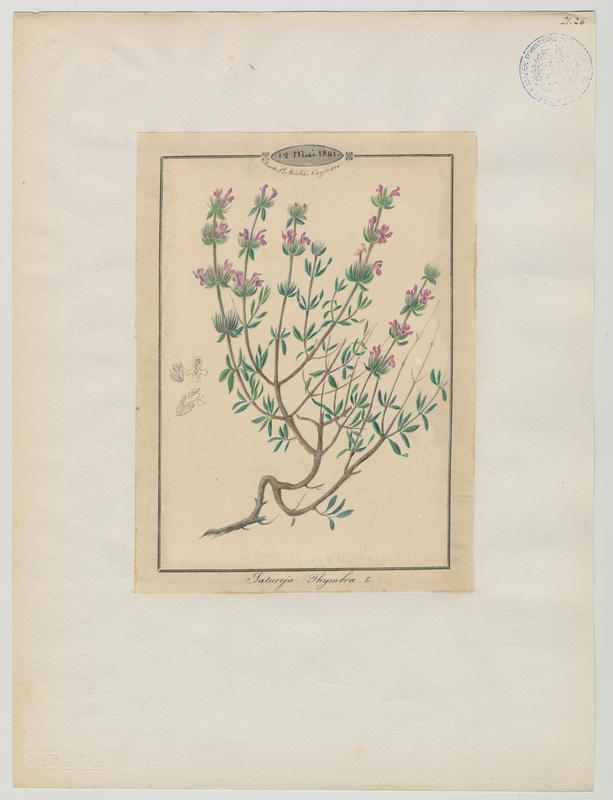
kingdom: Plantae
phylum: Tracheophyta
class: Magnoliopsida
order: Lamiales
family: Lamiaceae
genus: Satureja
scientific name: Satureja thymbra
